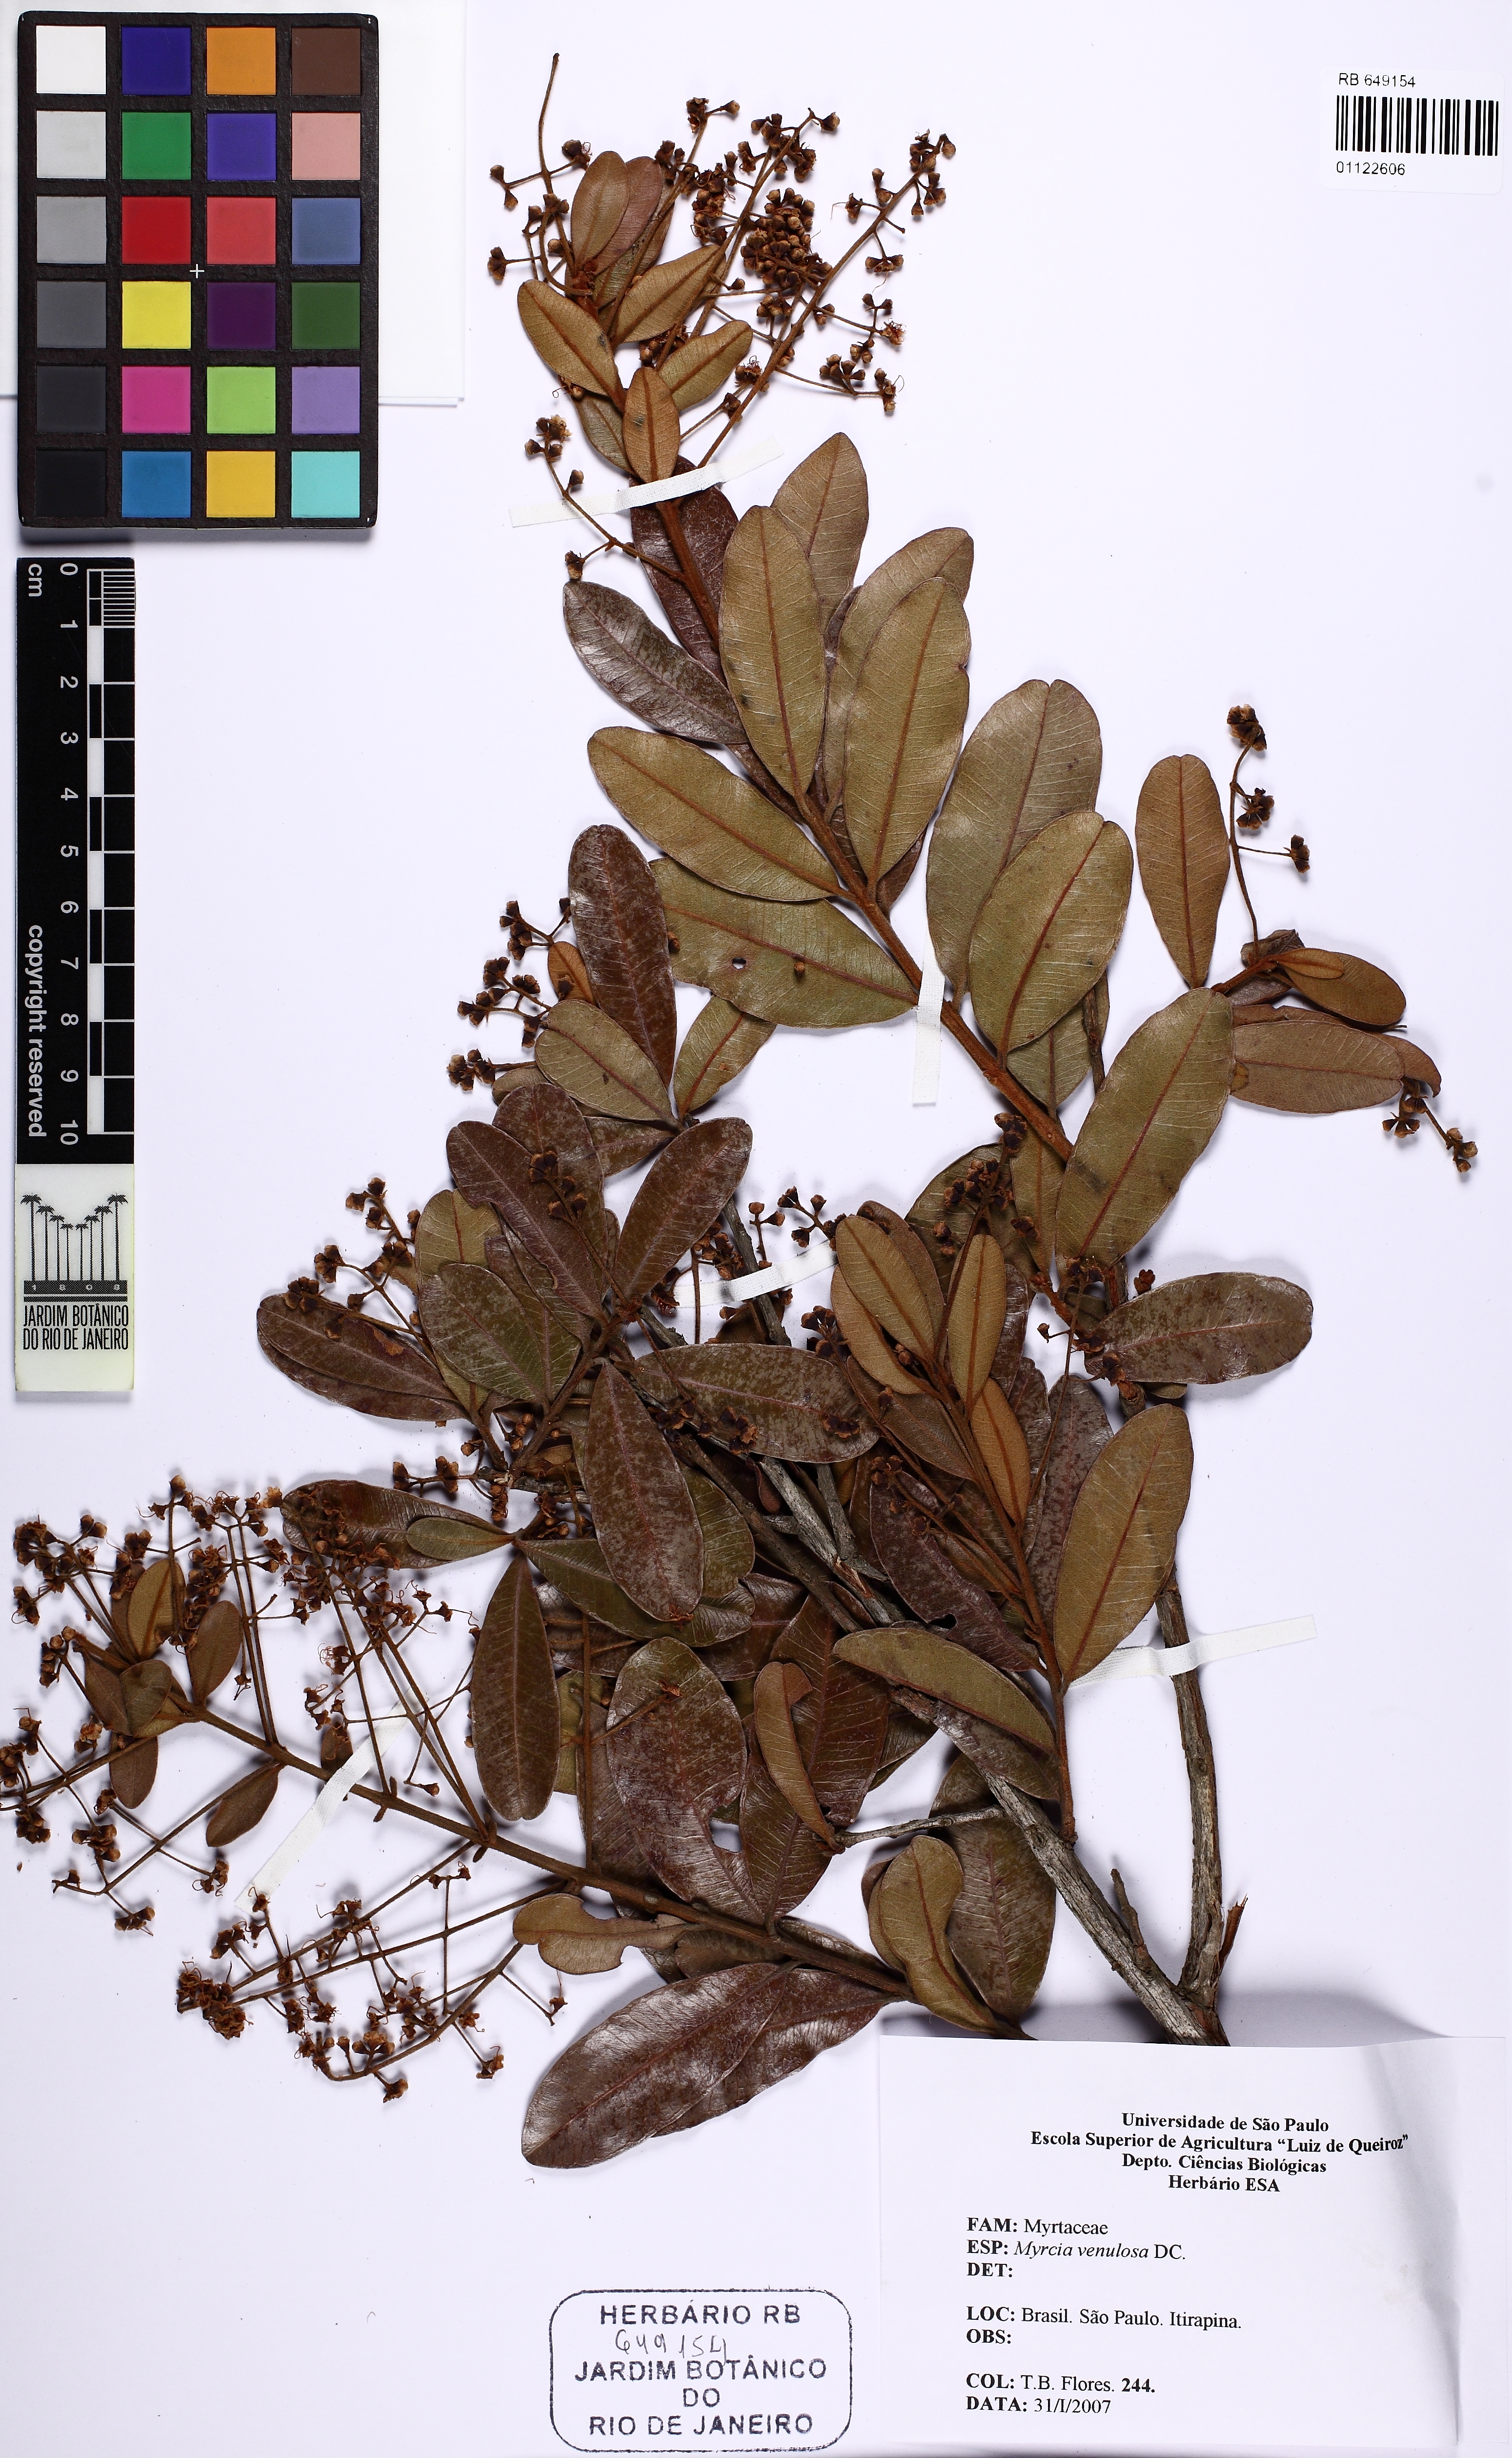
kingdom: Plantae
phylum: Tracheophyta
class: Magnoliopsida
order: Myrtales
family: Myrtaceae
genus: Myrcia
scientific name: Myrcia subalpestris
